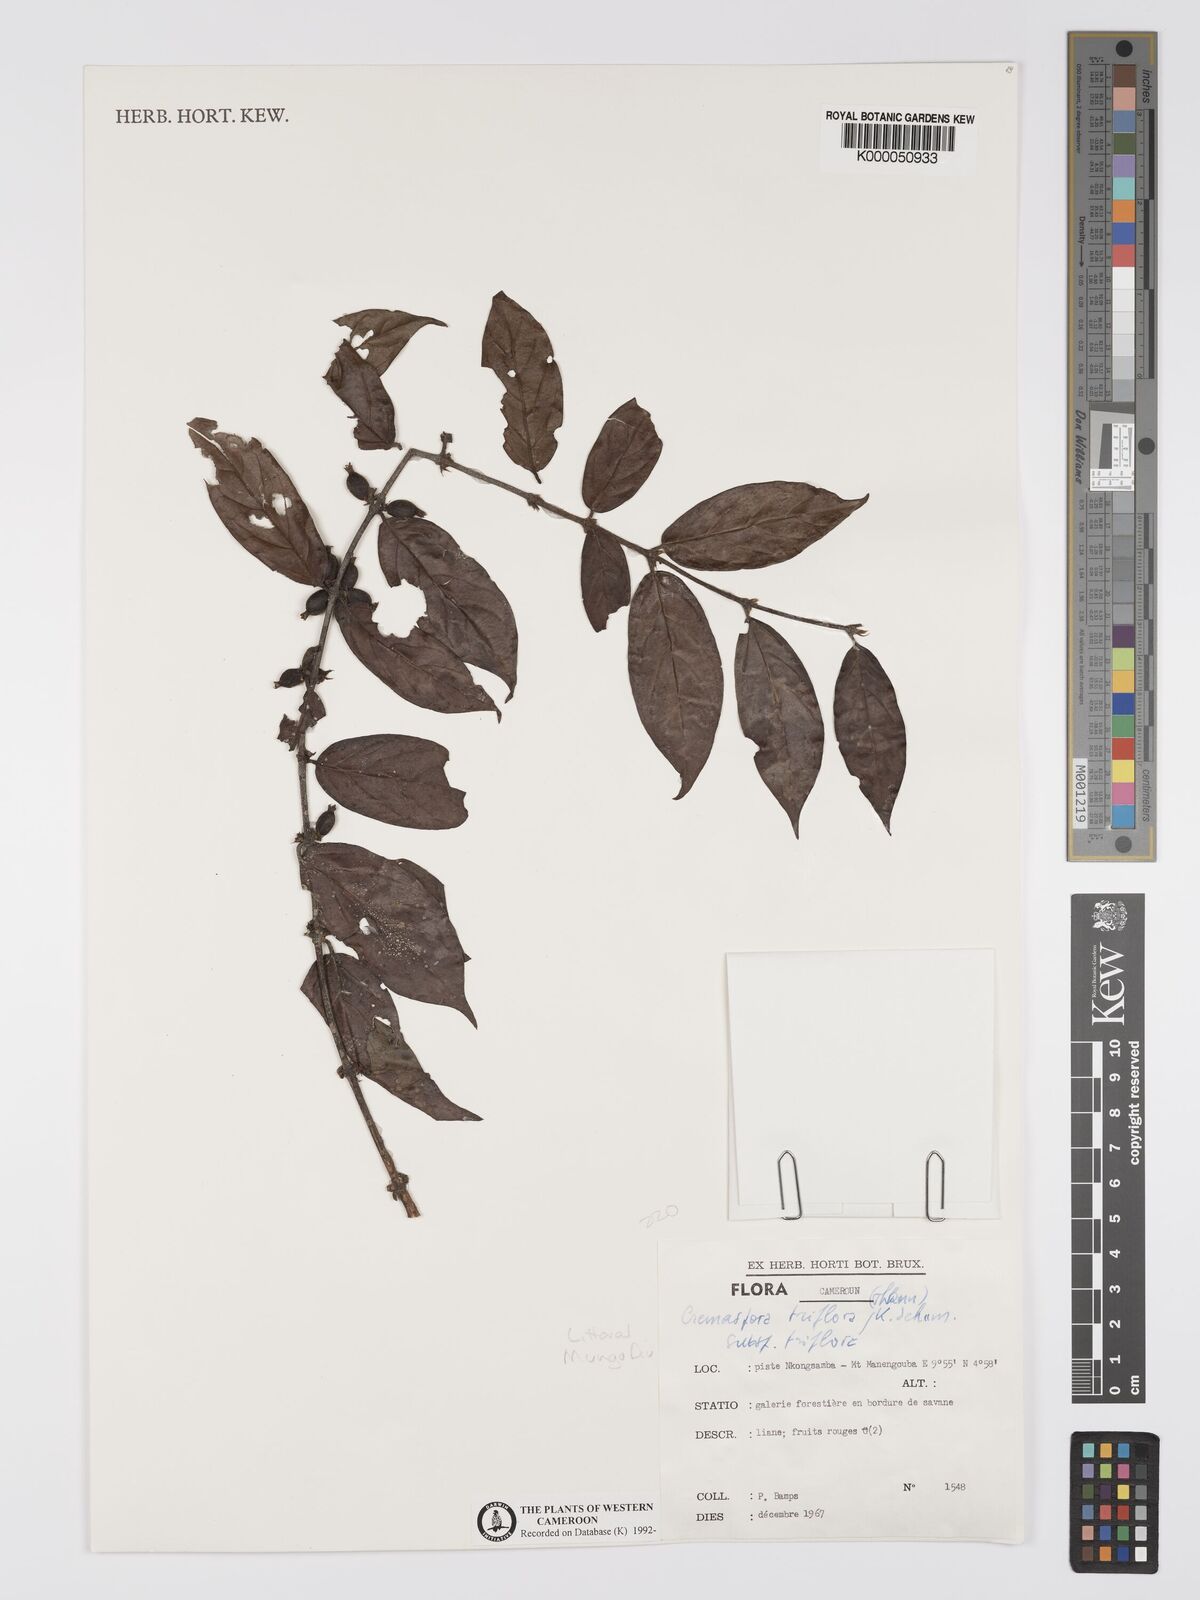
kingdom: Plantae
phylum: Tracheophyta
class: Magnoliopsida
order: Gentianales
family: Rubiaceae
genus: Cremaspora
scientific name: Cremaspora triflora
